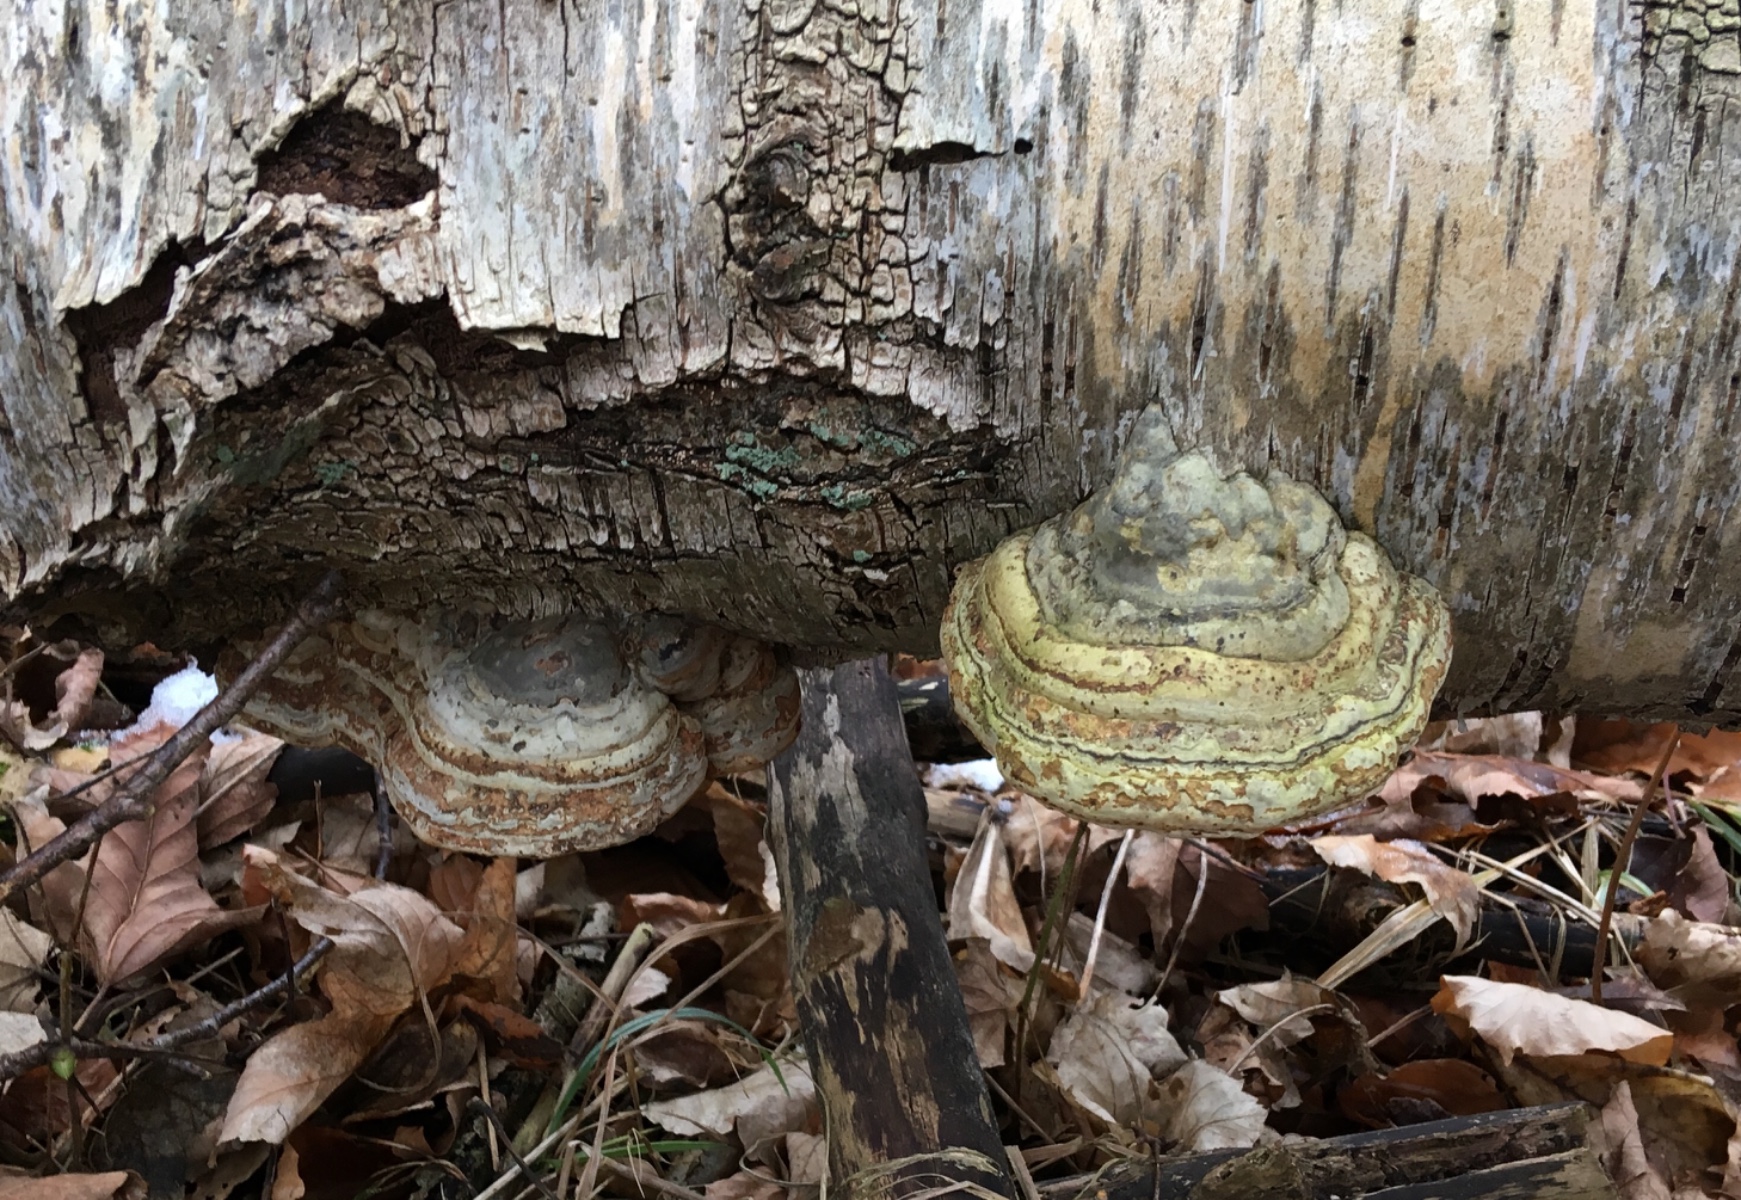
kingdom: Fungi
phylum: Basidiomycota
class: Agaricomycetes
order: Polyporales
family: Polyporaceae
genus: Fomes
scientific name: Fomes fomentarius
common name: tøndersvamp
